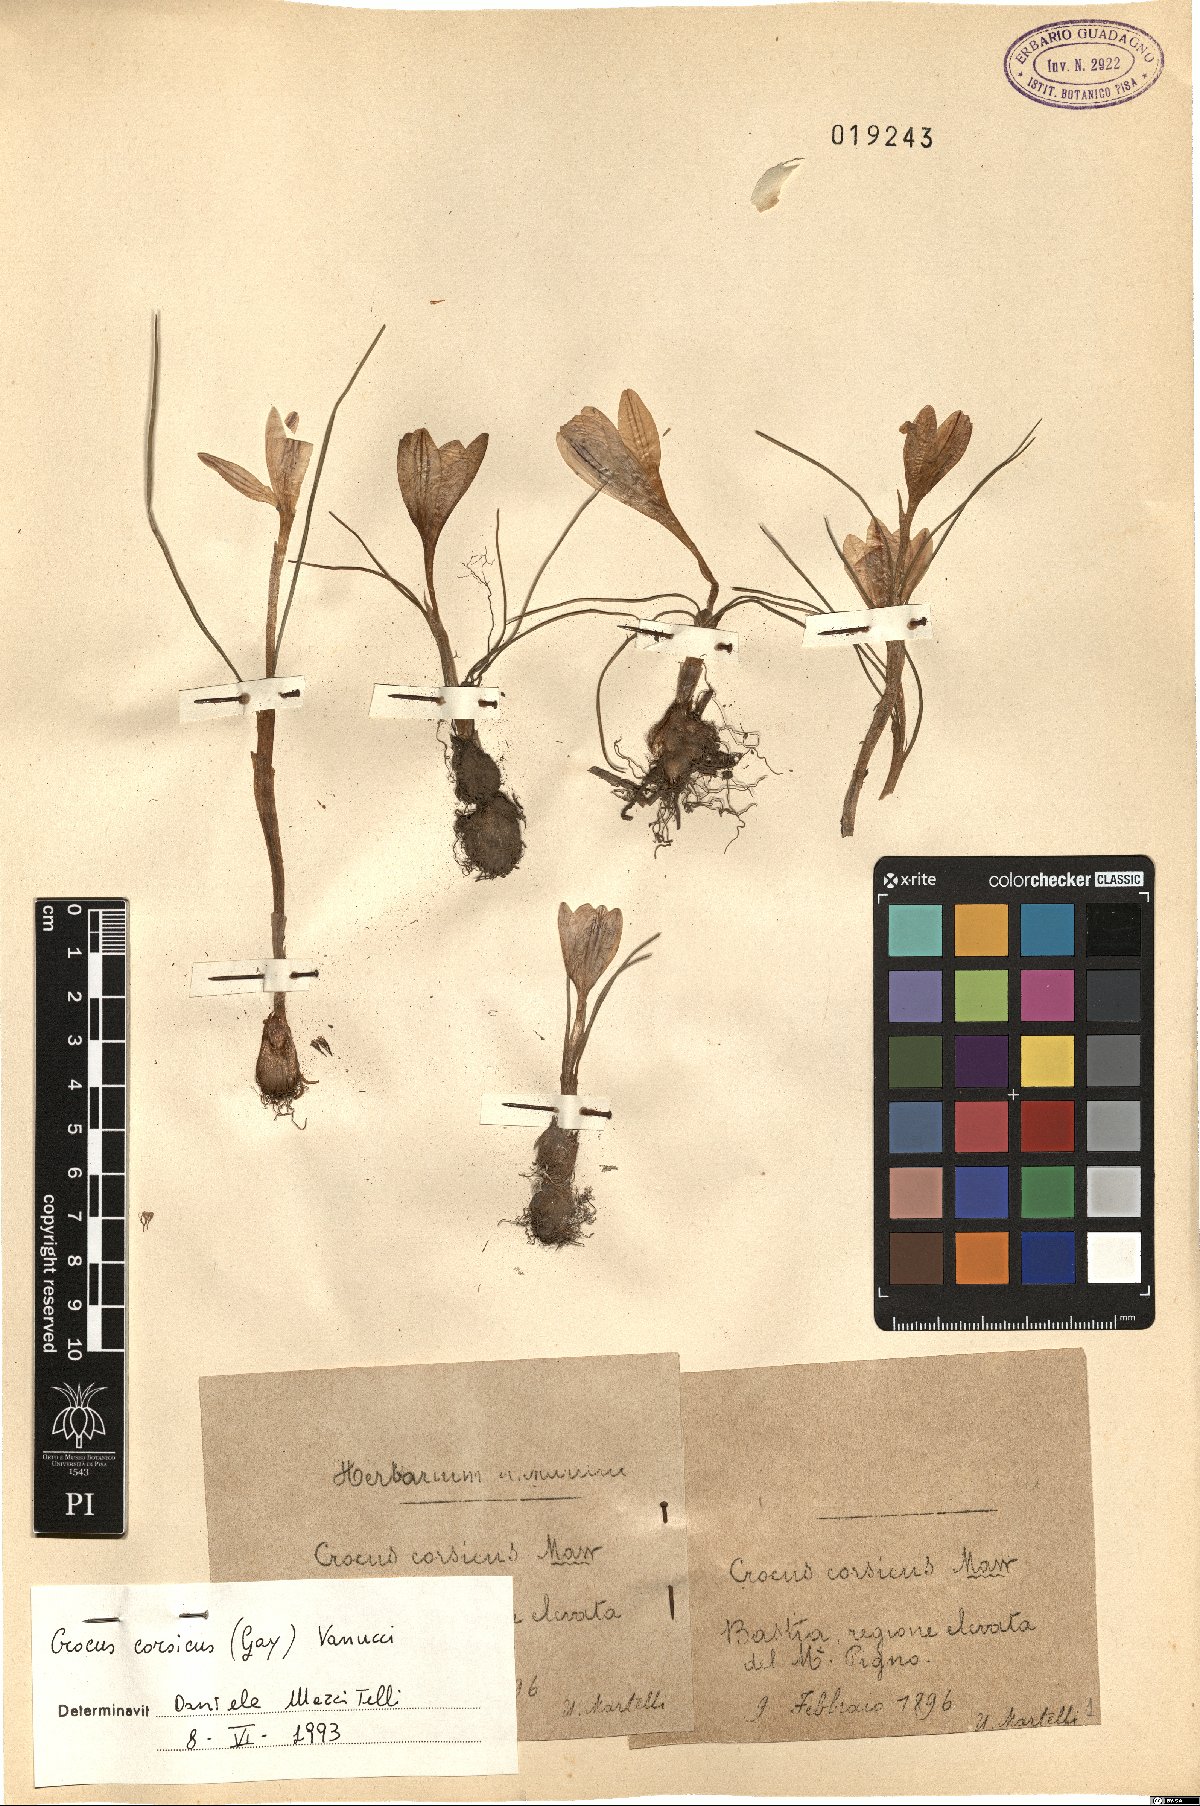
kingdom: Plantae
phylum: Tracheophyta
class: Liliopsida
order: Asparagales
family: Iridaceae
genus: Crocus
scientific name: Crocus corsicus
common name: Corsican crocus
